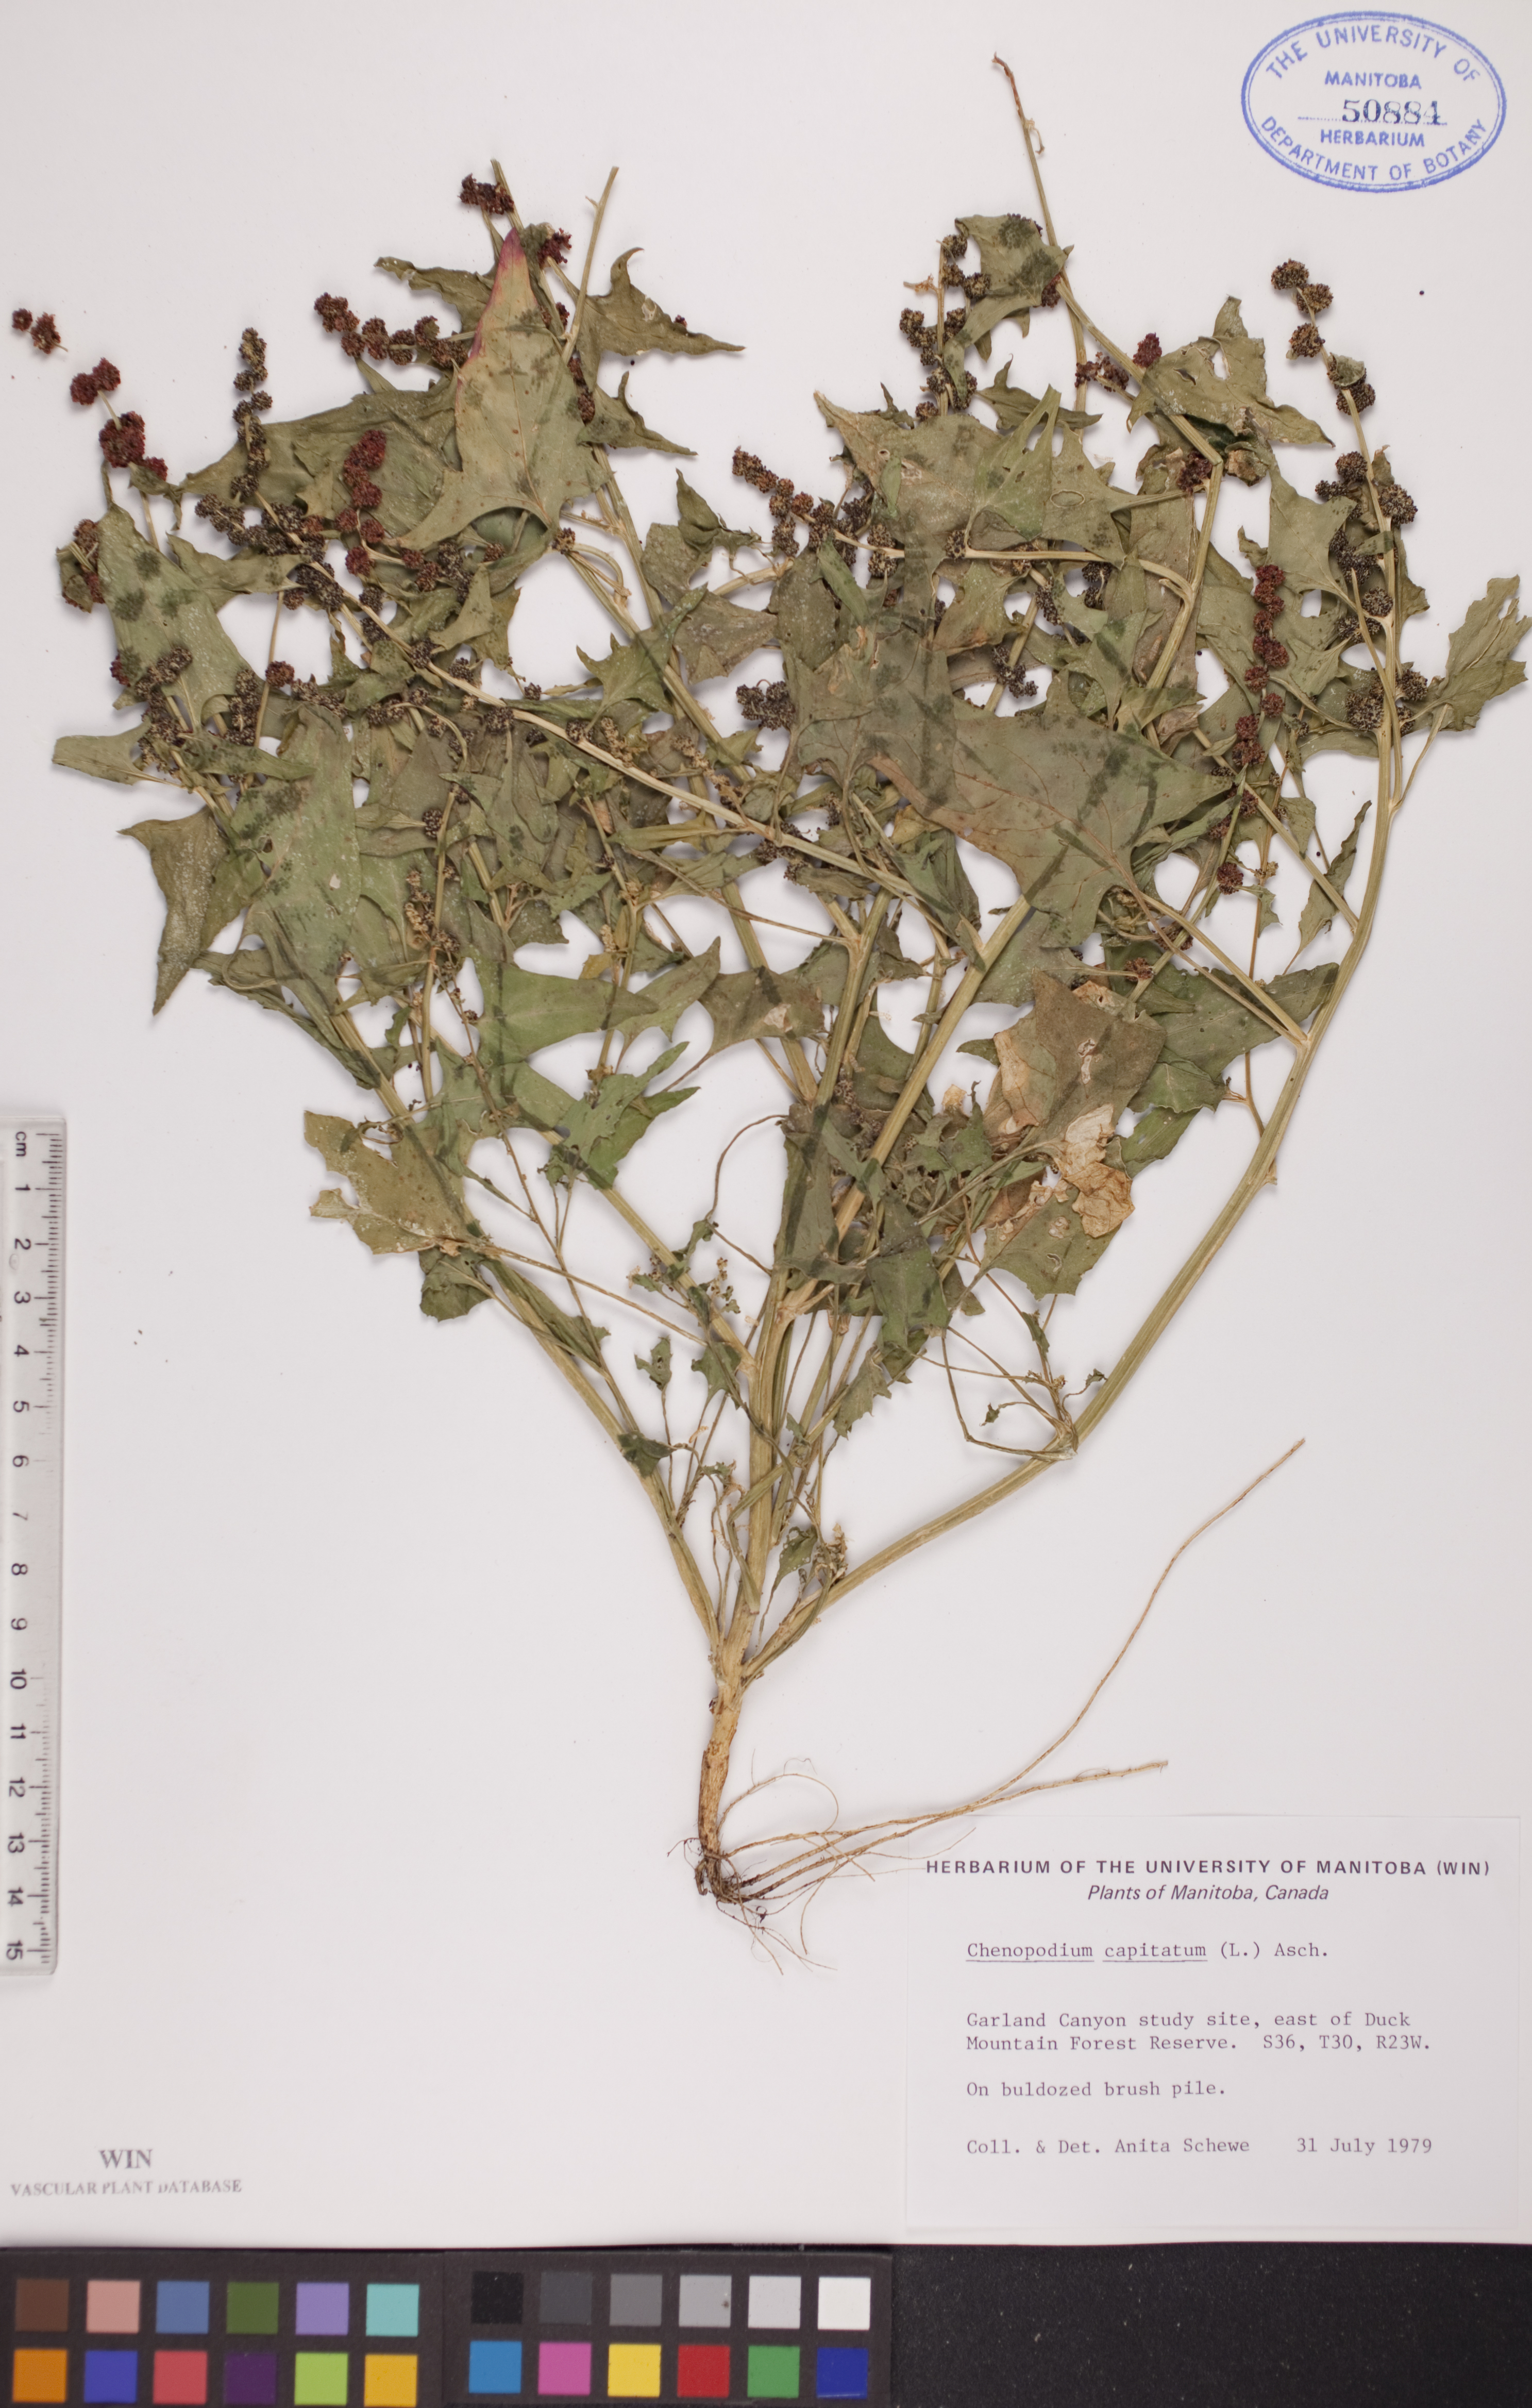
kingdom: Plantae
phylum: Tracheophyta
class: Magnoliopsida
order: Caryophyllales
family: Amaranthaceae
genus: Blitum
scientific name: Blitum capitatum
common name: Strawberry-blight
